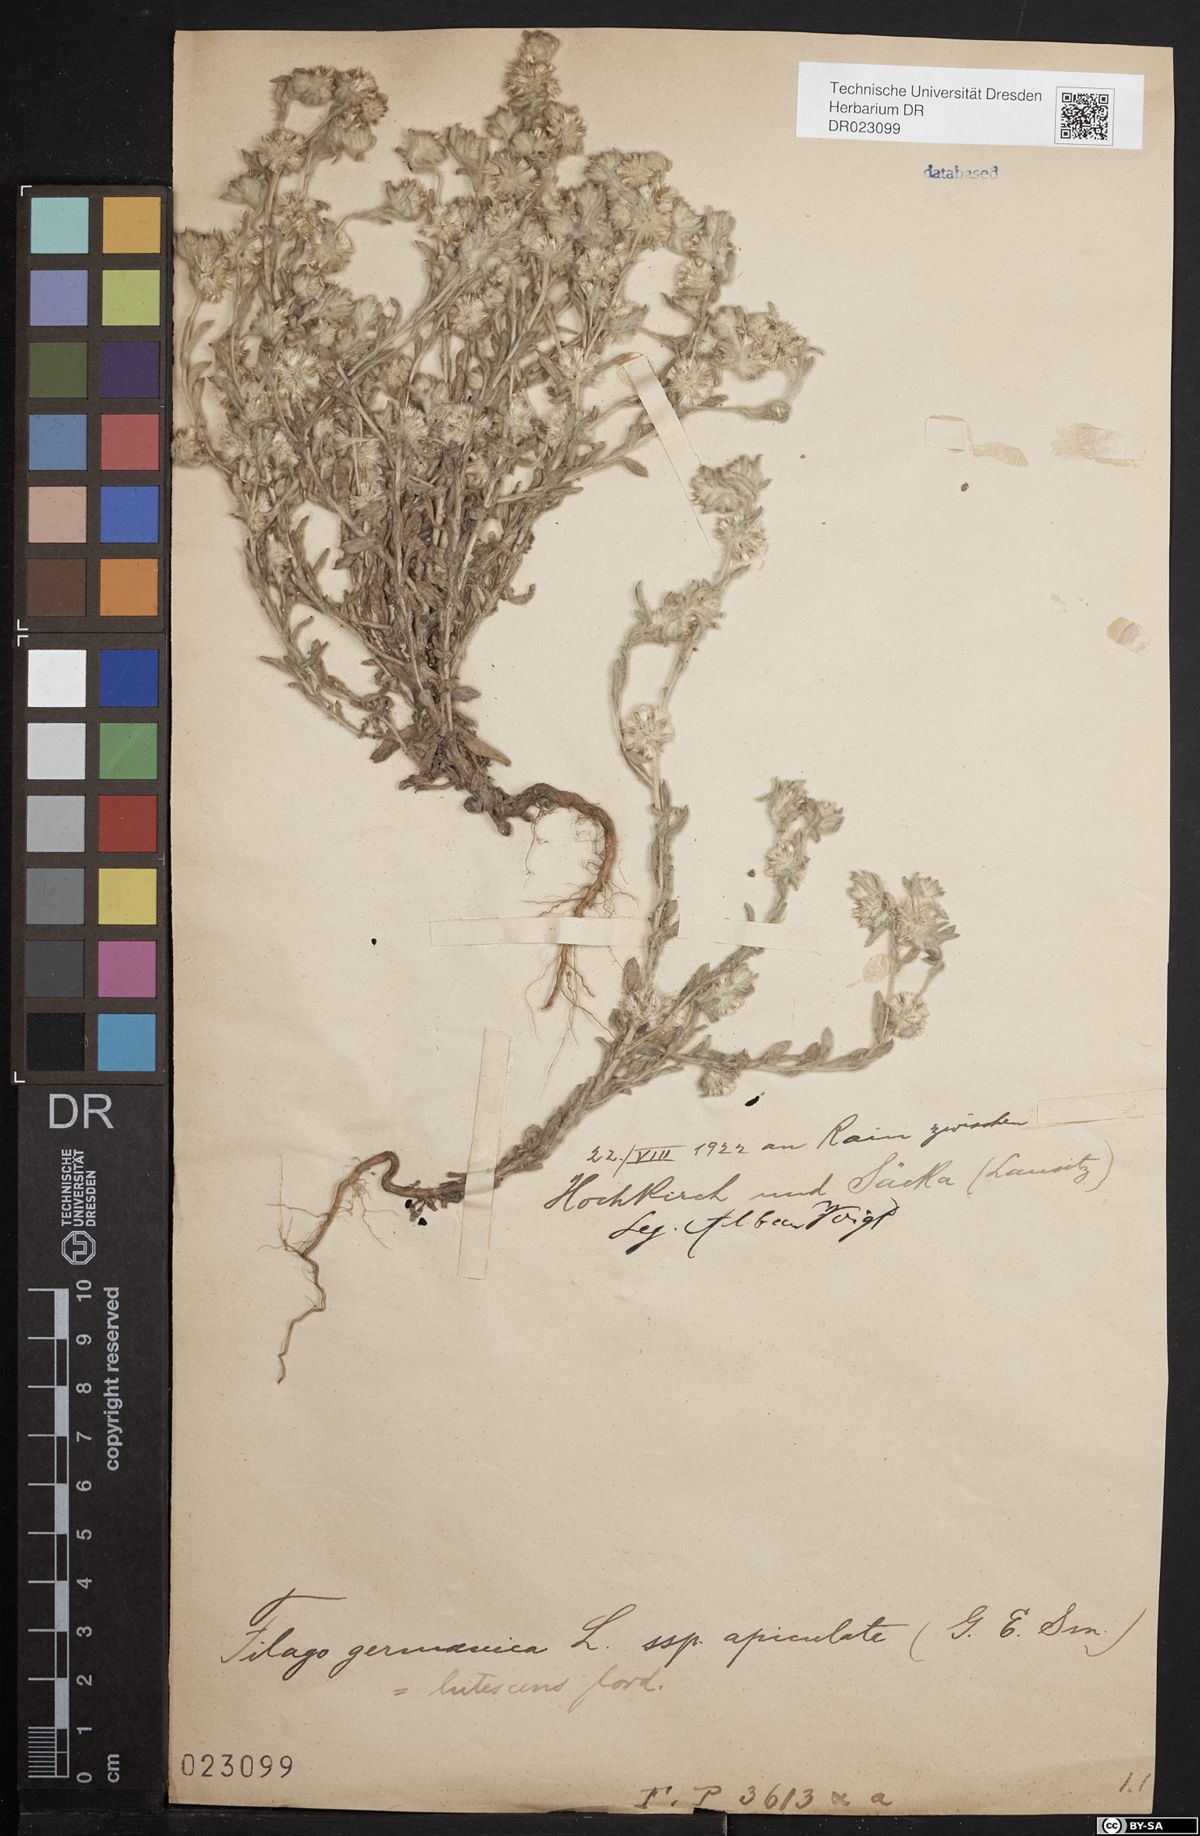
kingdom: Plantae
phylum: Tracheophyta
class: Magnoliopsida
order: Asterales
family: Asteraceae
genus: Filago
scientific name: Filago germanica
